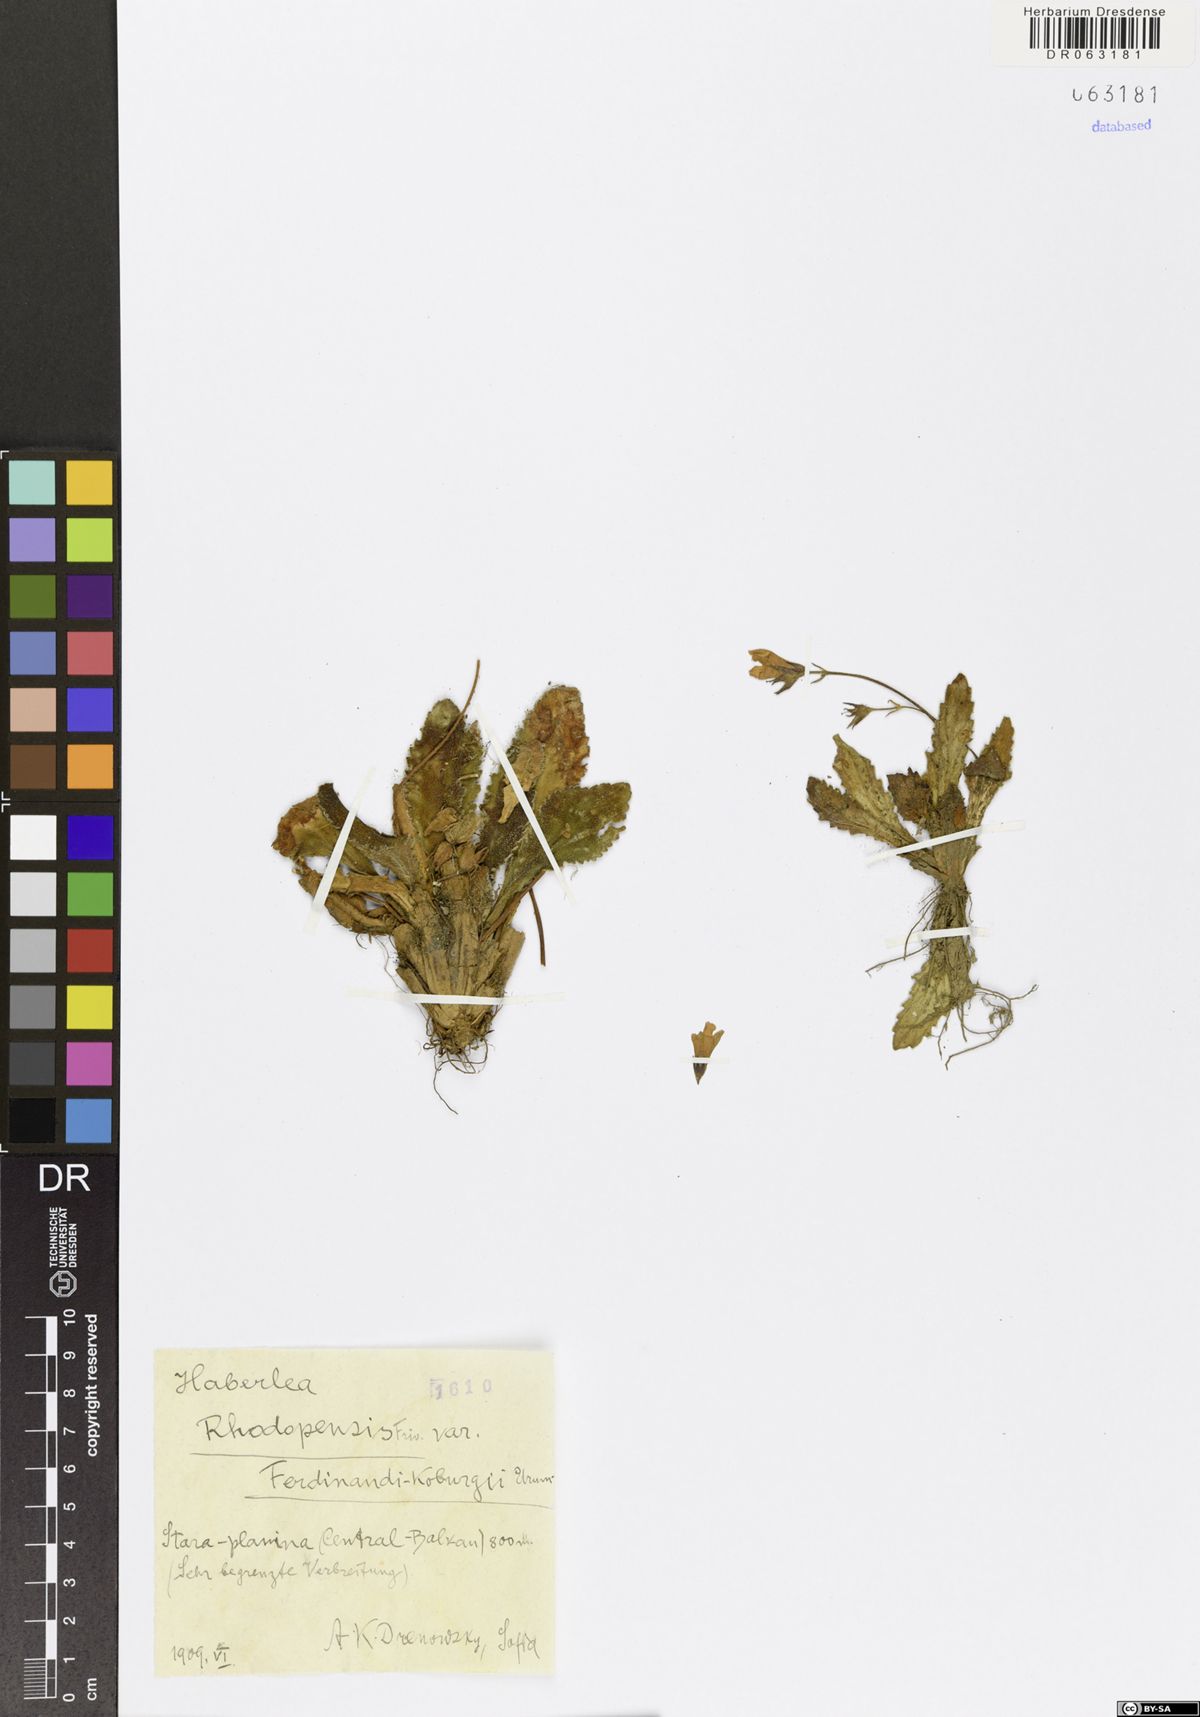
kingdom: Plantae
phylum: Tracheophyta
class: Magnoliopsida
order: Lamiales
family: Gesneriaceae
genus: Haberlea
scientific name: Haberlea rhodopensis
